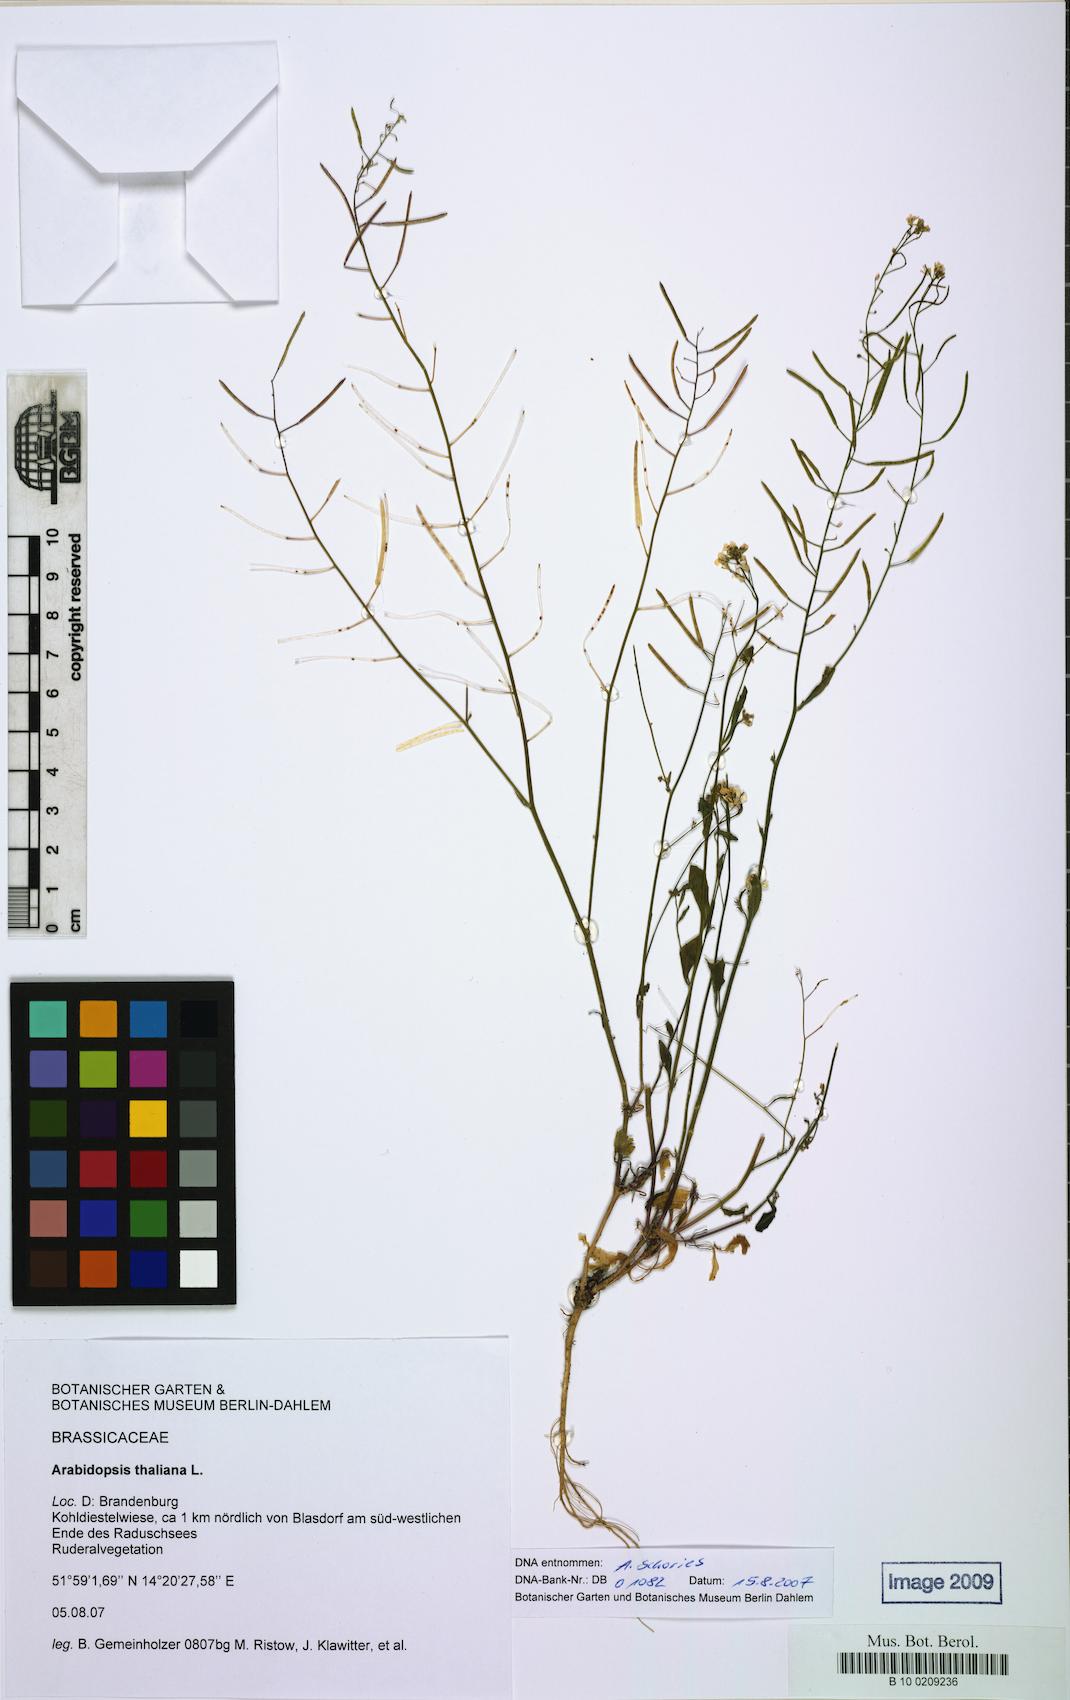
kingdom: Plantae
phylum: Tracheophyta
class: Magnoliopsida
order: Brassicales
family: Brassicaceae
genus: Arabidopsis
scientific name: Arabidopsis thaliana
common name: Thale cress
